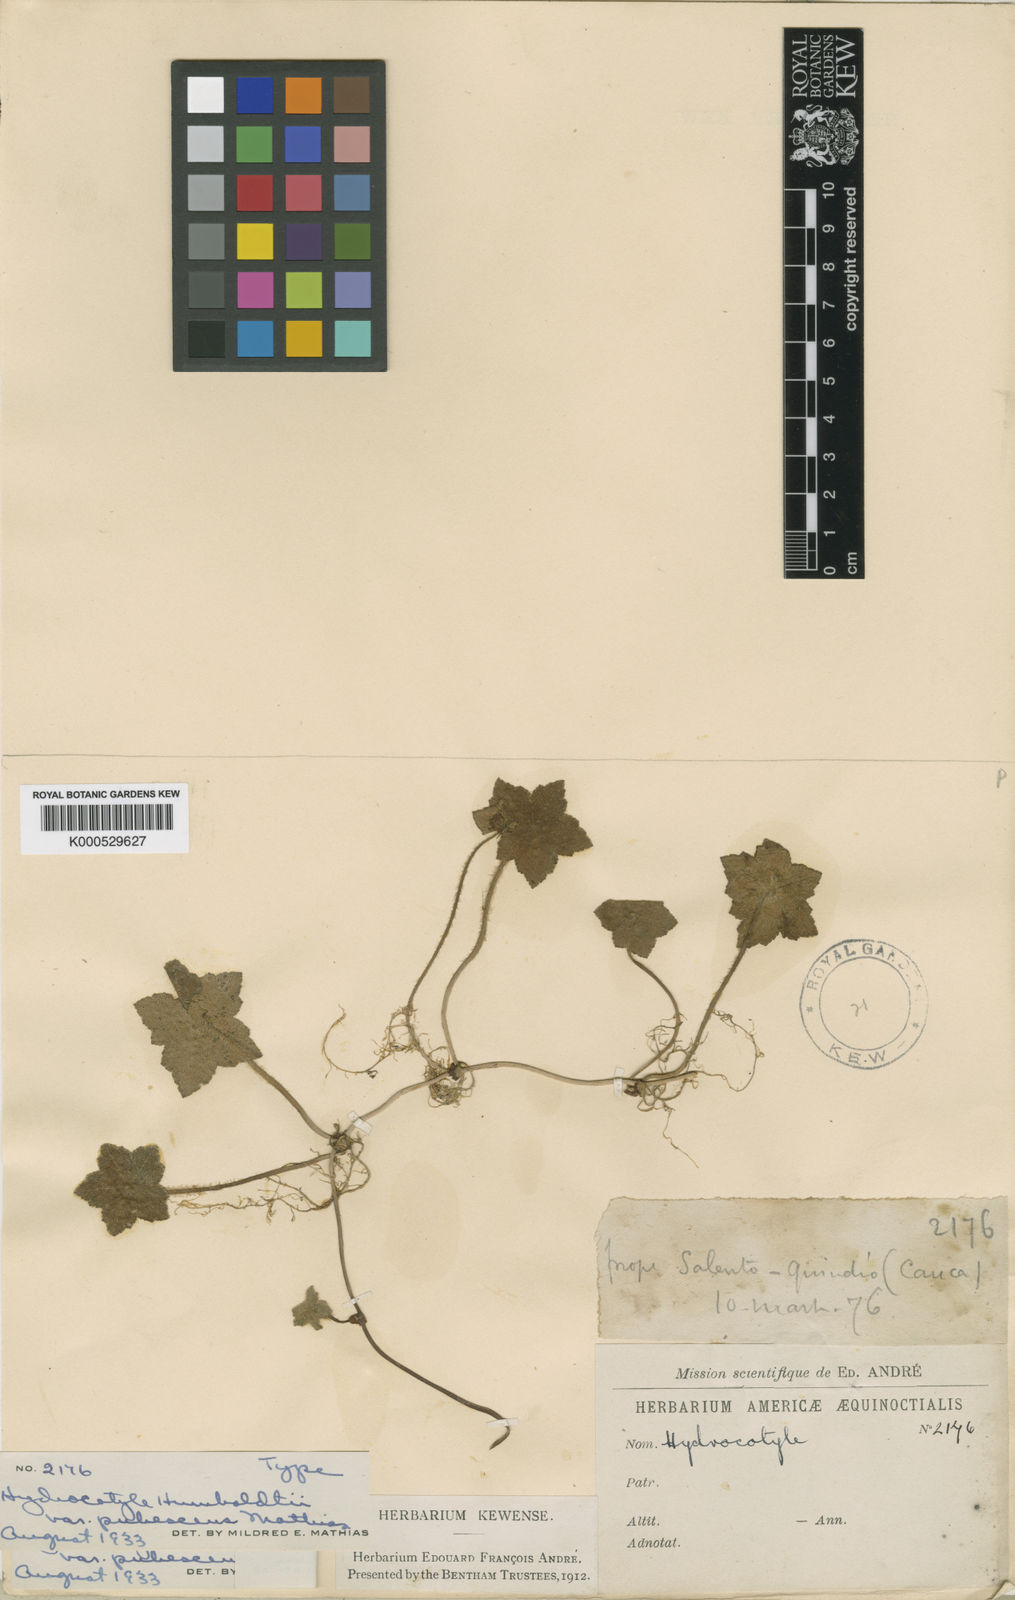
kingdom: Plantae
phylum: Tracheophyta
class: Magnoliopsida
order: Apiales
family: Araliaceae
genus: Hydrocotyle
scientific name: Hydrocotyle humboldtii
